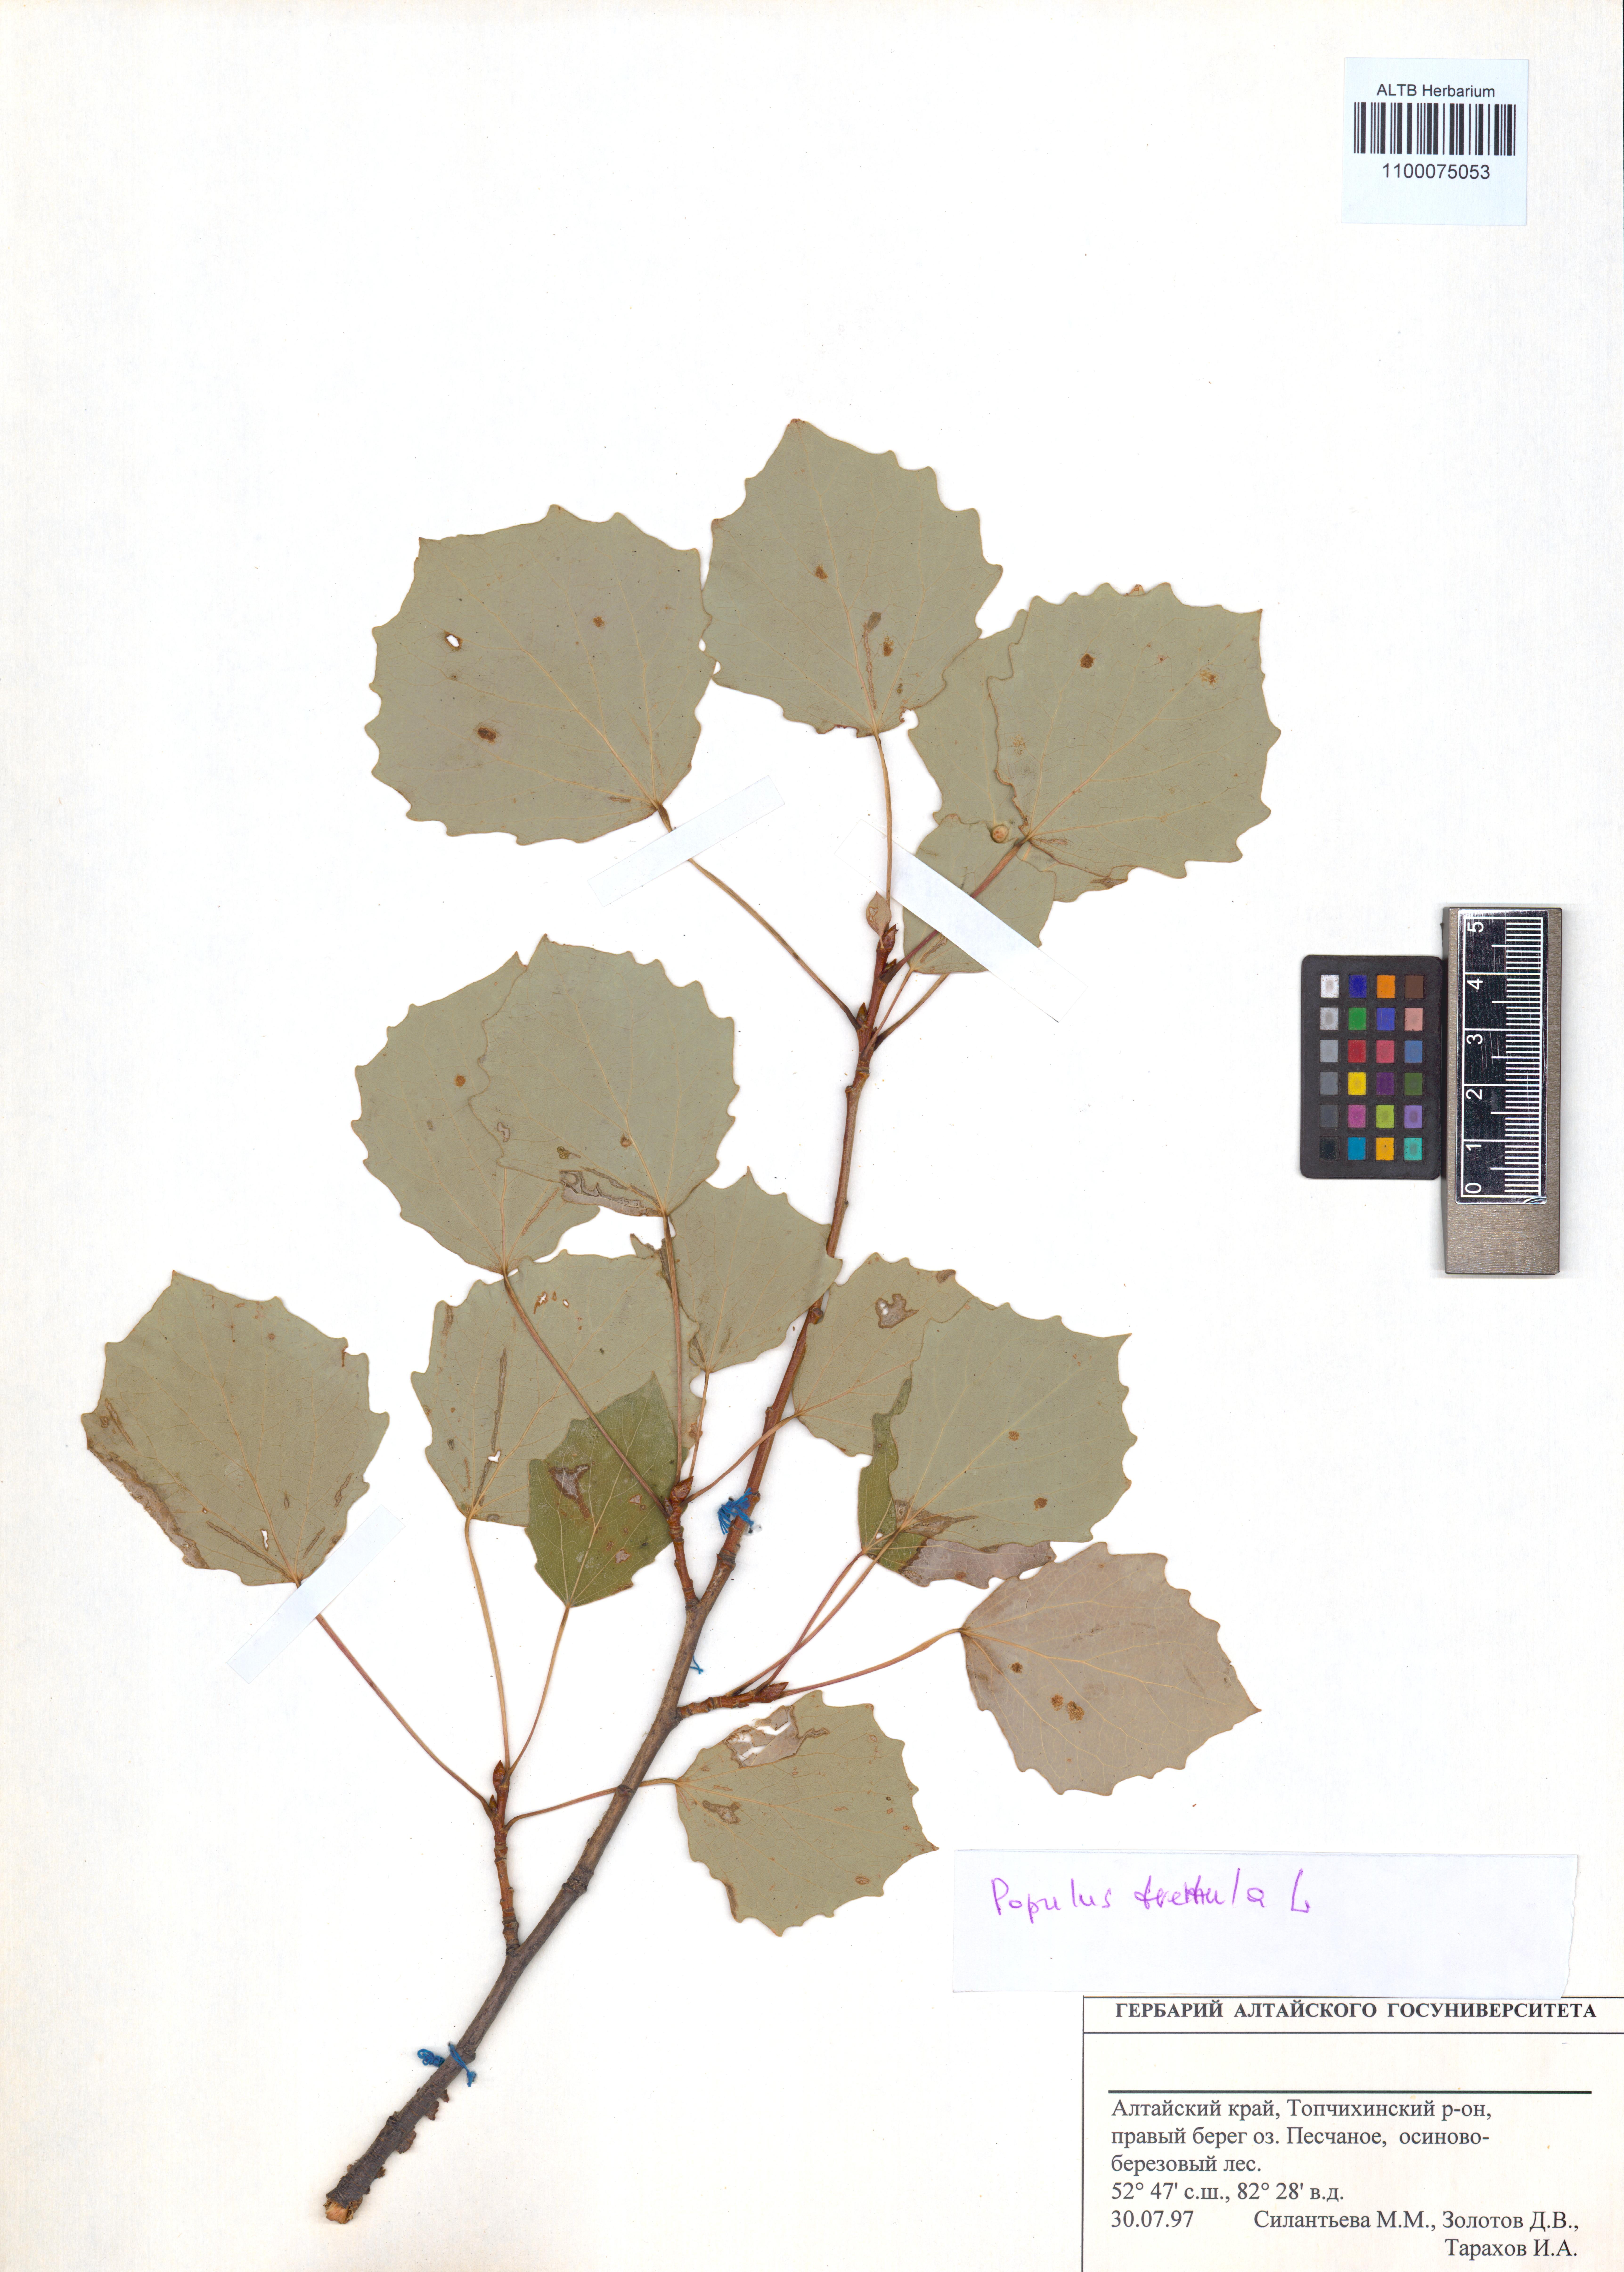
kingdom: Plantae
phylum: Tracheophyta
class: Magnoliopsida
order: Malpighiales
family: Salicaceae
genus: Populus
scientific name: Populus tremula
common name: European aspen
